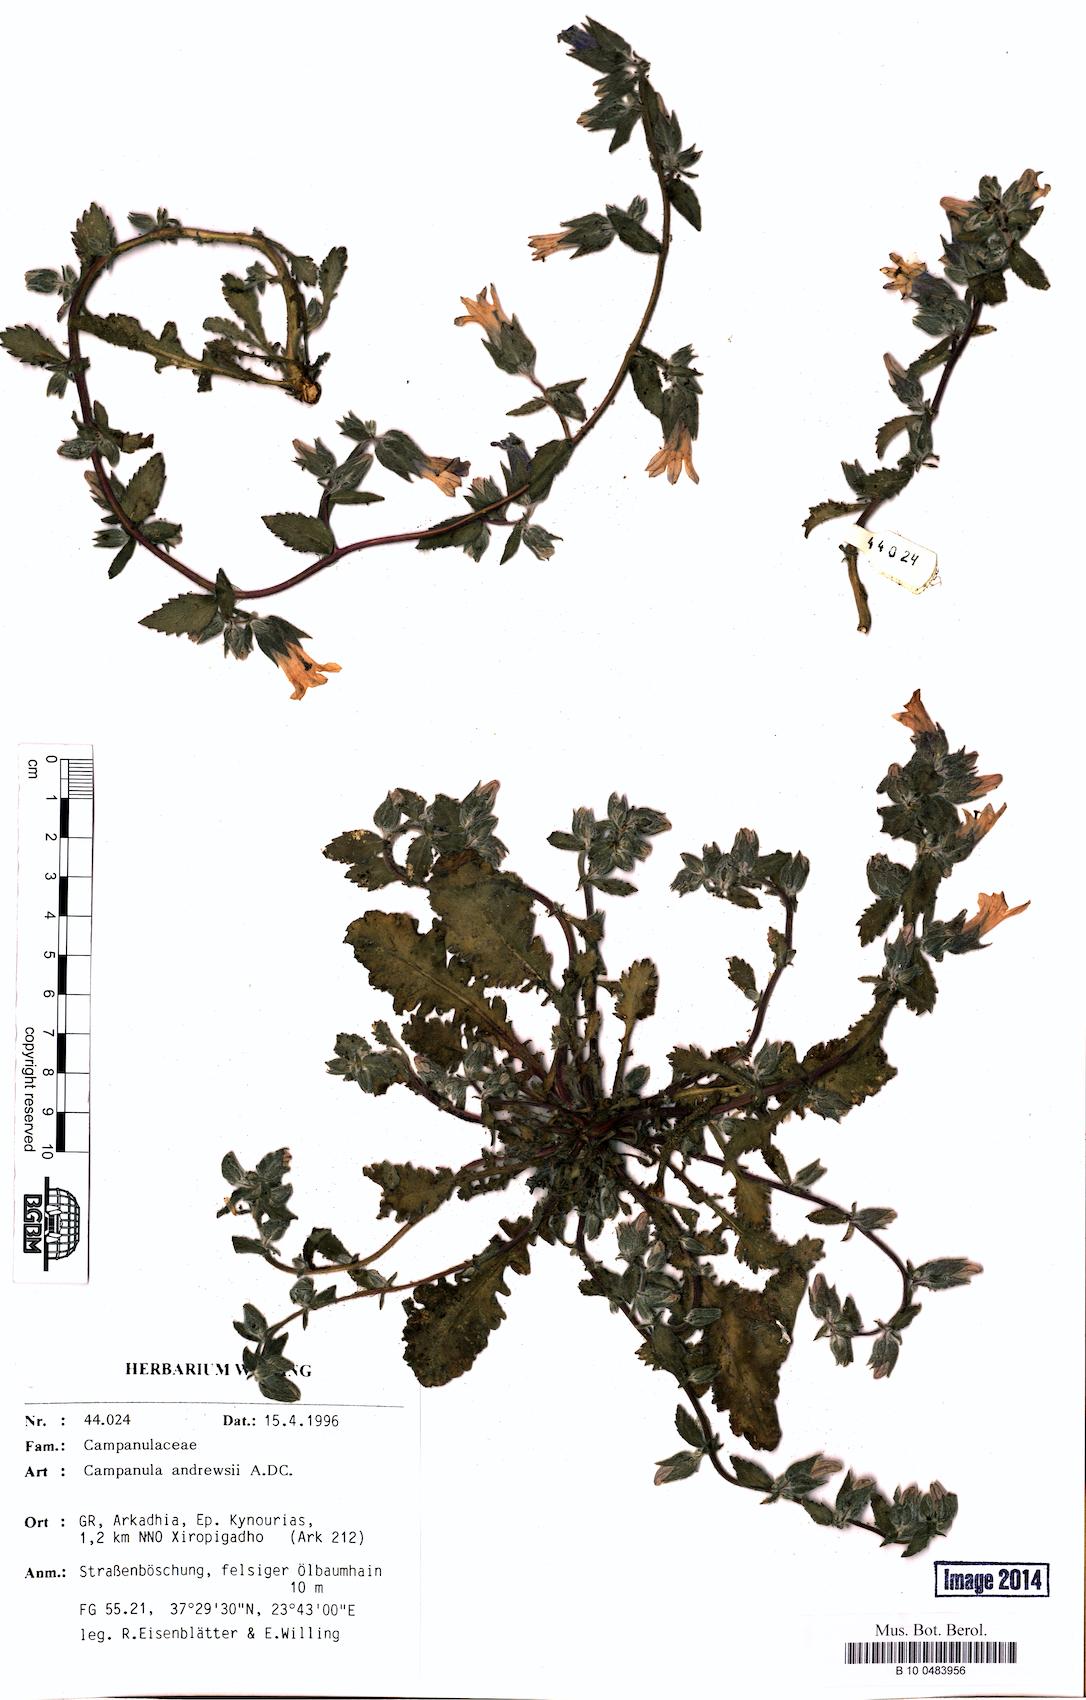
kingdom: Plantae
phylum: Tracheophyta
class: Magnoliopsida
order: Asterales
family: Campanulaceae
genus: Campanula
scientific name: Campanula andrewsii
